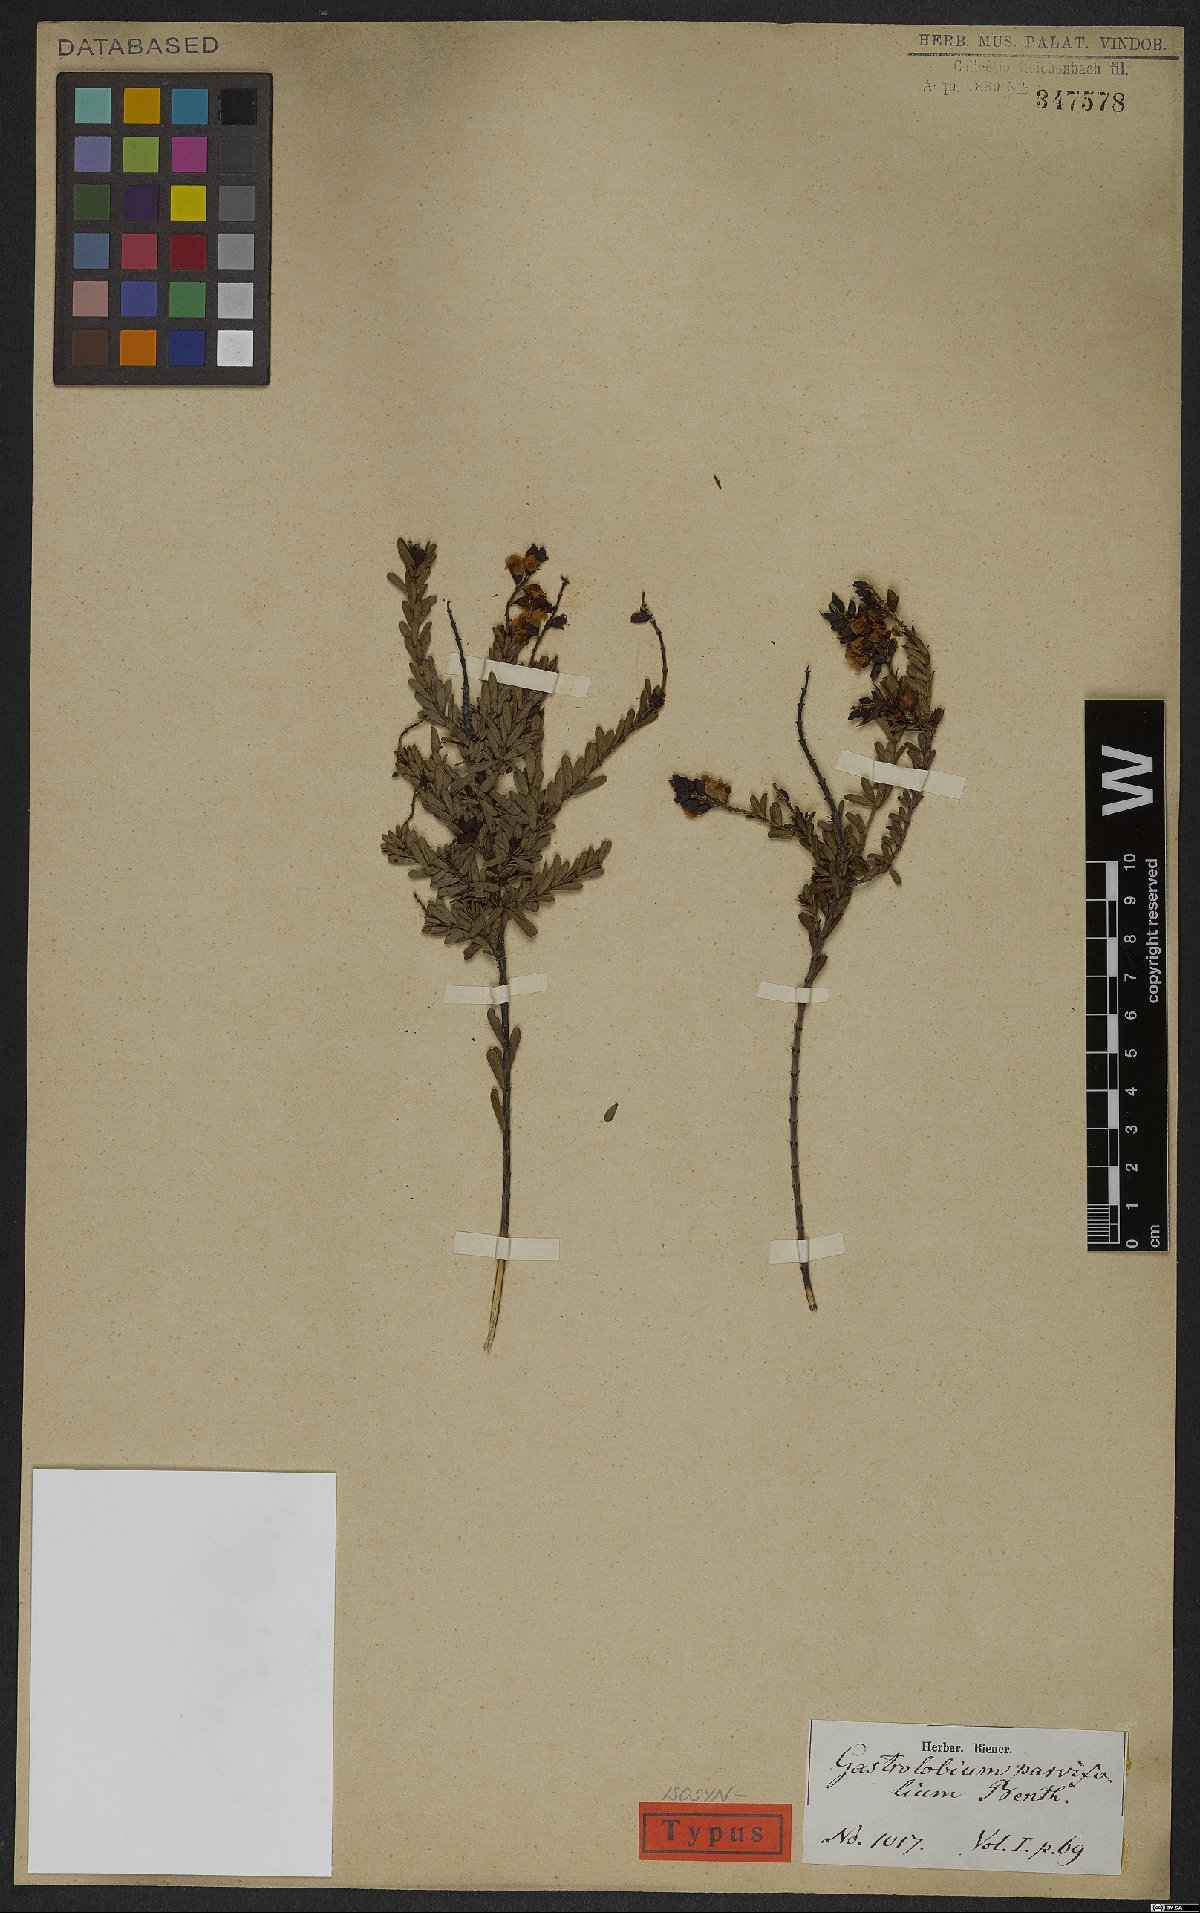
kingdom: Plantae
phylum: Tracheophyta
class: Magnoliopsida
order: Fabales
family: Fabaceae
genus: Gastrolobium
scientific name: Gastrolobium parvifolium
